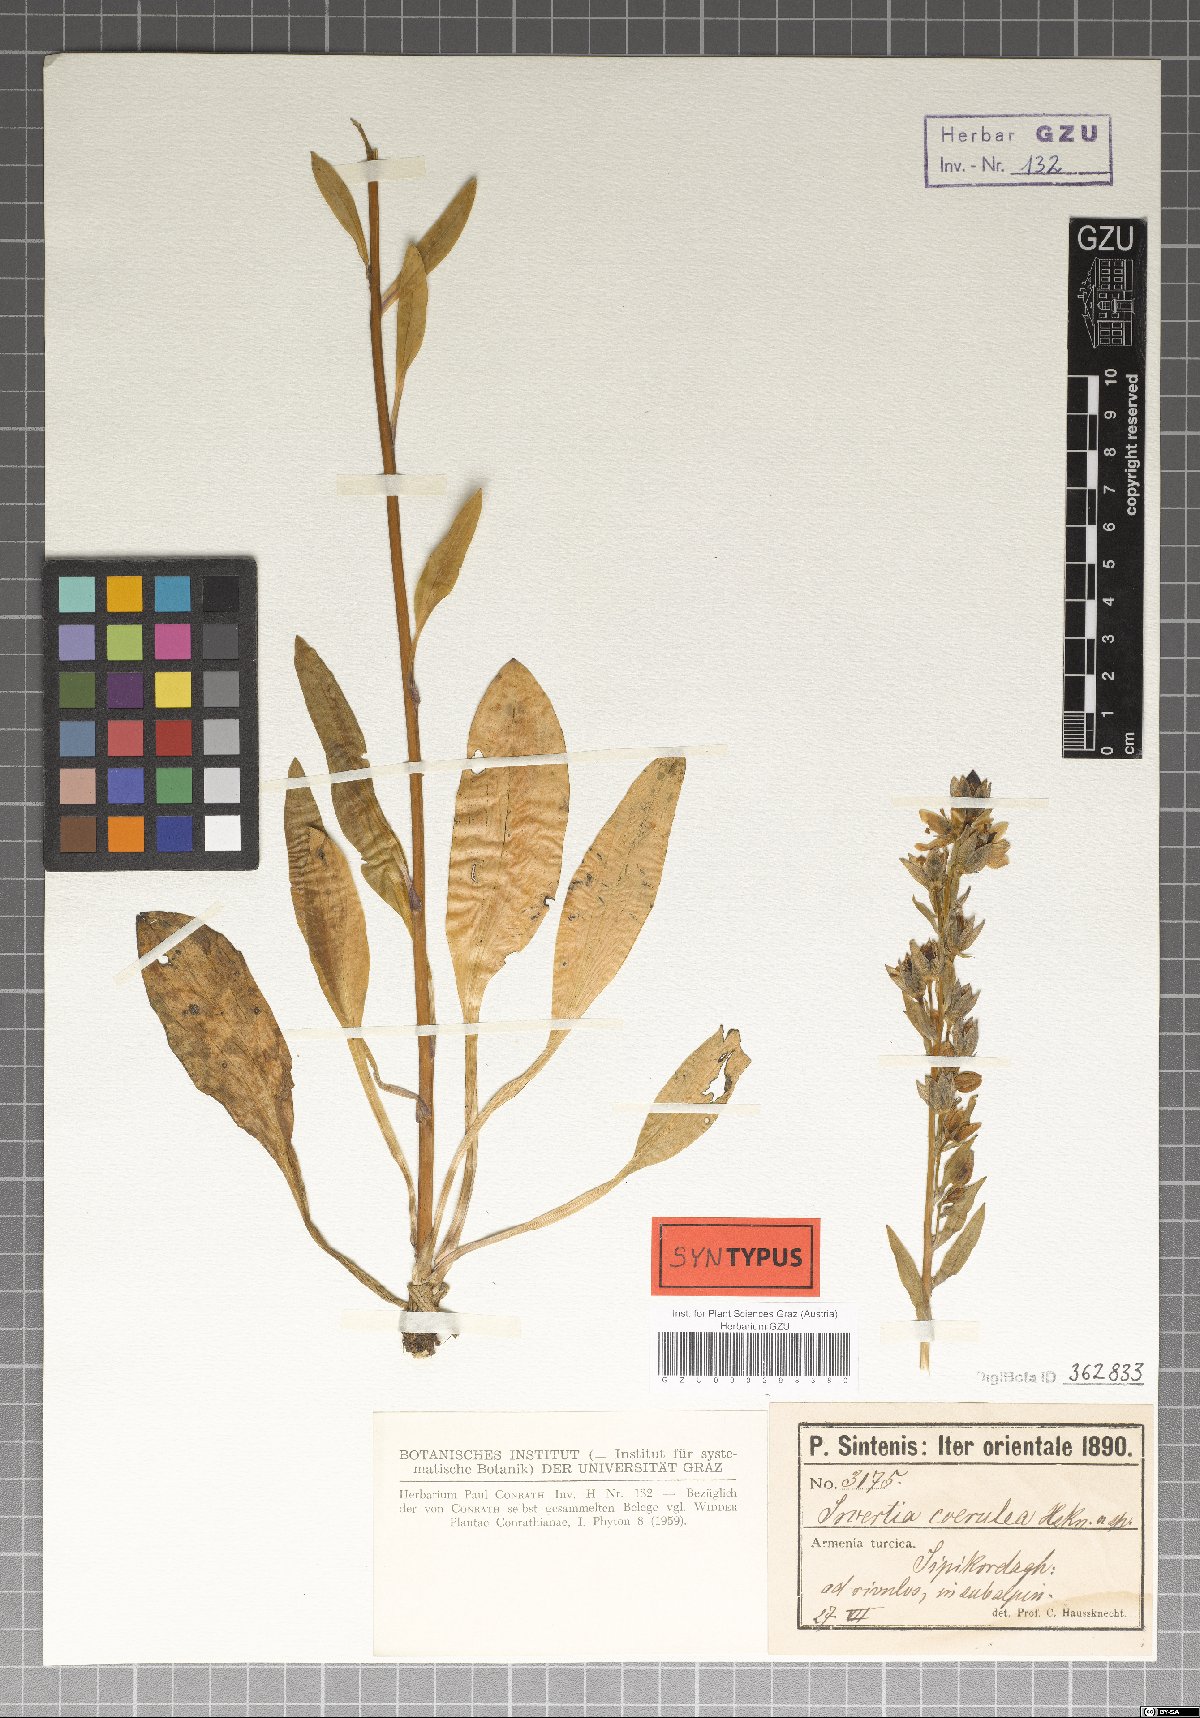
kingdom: Plantae
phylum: Tracheophyta
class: Magnoliopsida
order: Gentianales
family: Gentianaceae
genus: Swertia
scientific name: Swertia iberica
